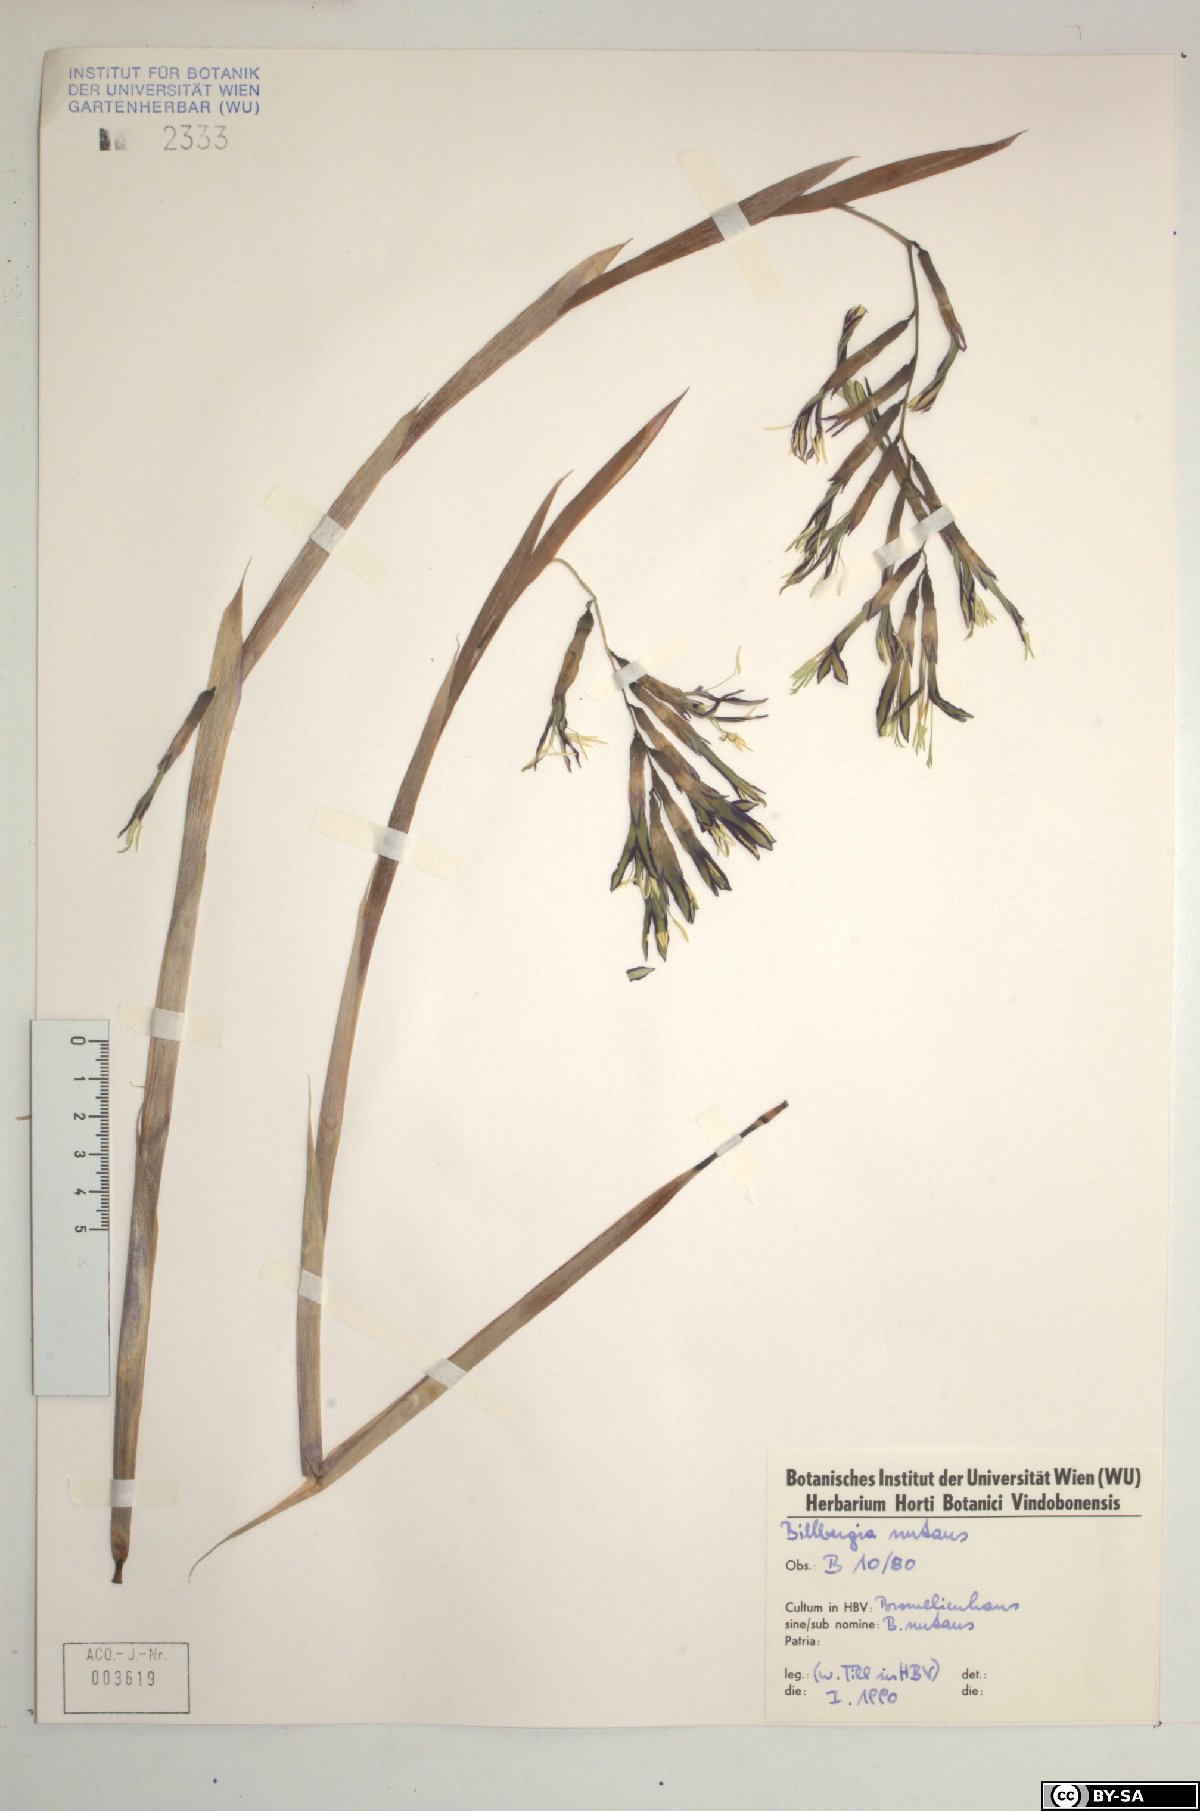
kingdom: Plantae
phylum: Tracheophyta
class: Liliopsida
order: Poales
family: Bromeliaceae
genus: Billbergia
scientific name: Billbergia nutans
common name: Friendship-plant
